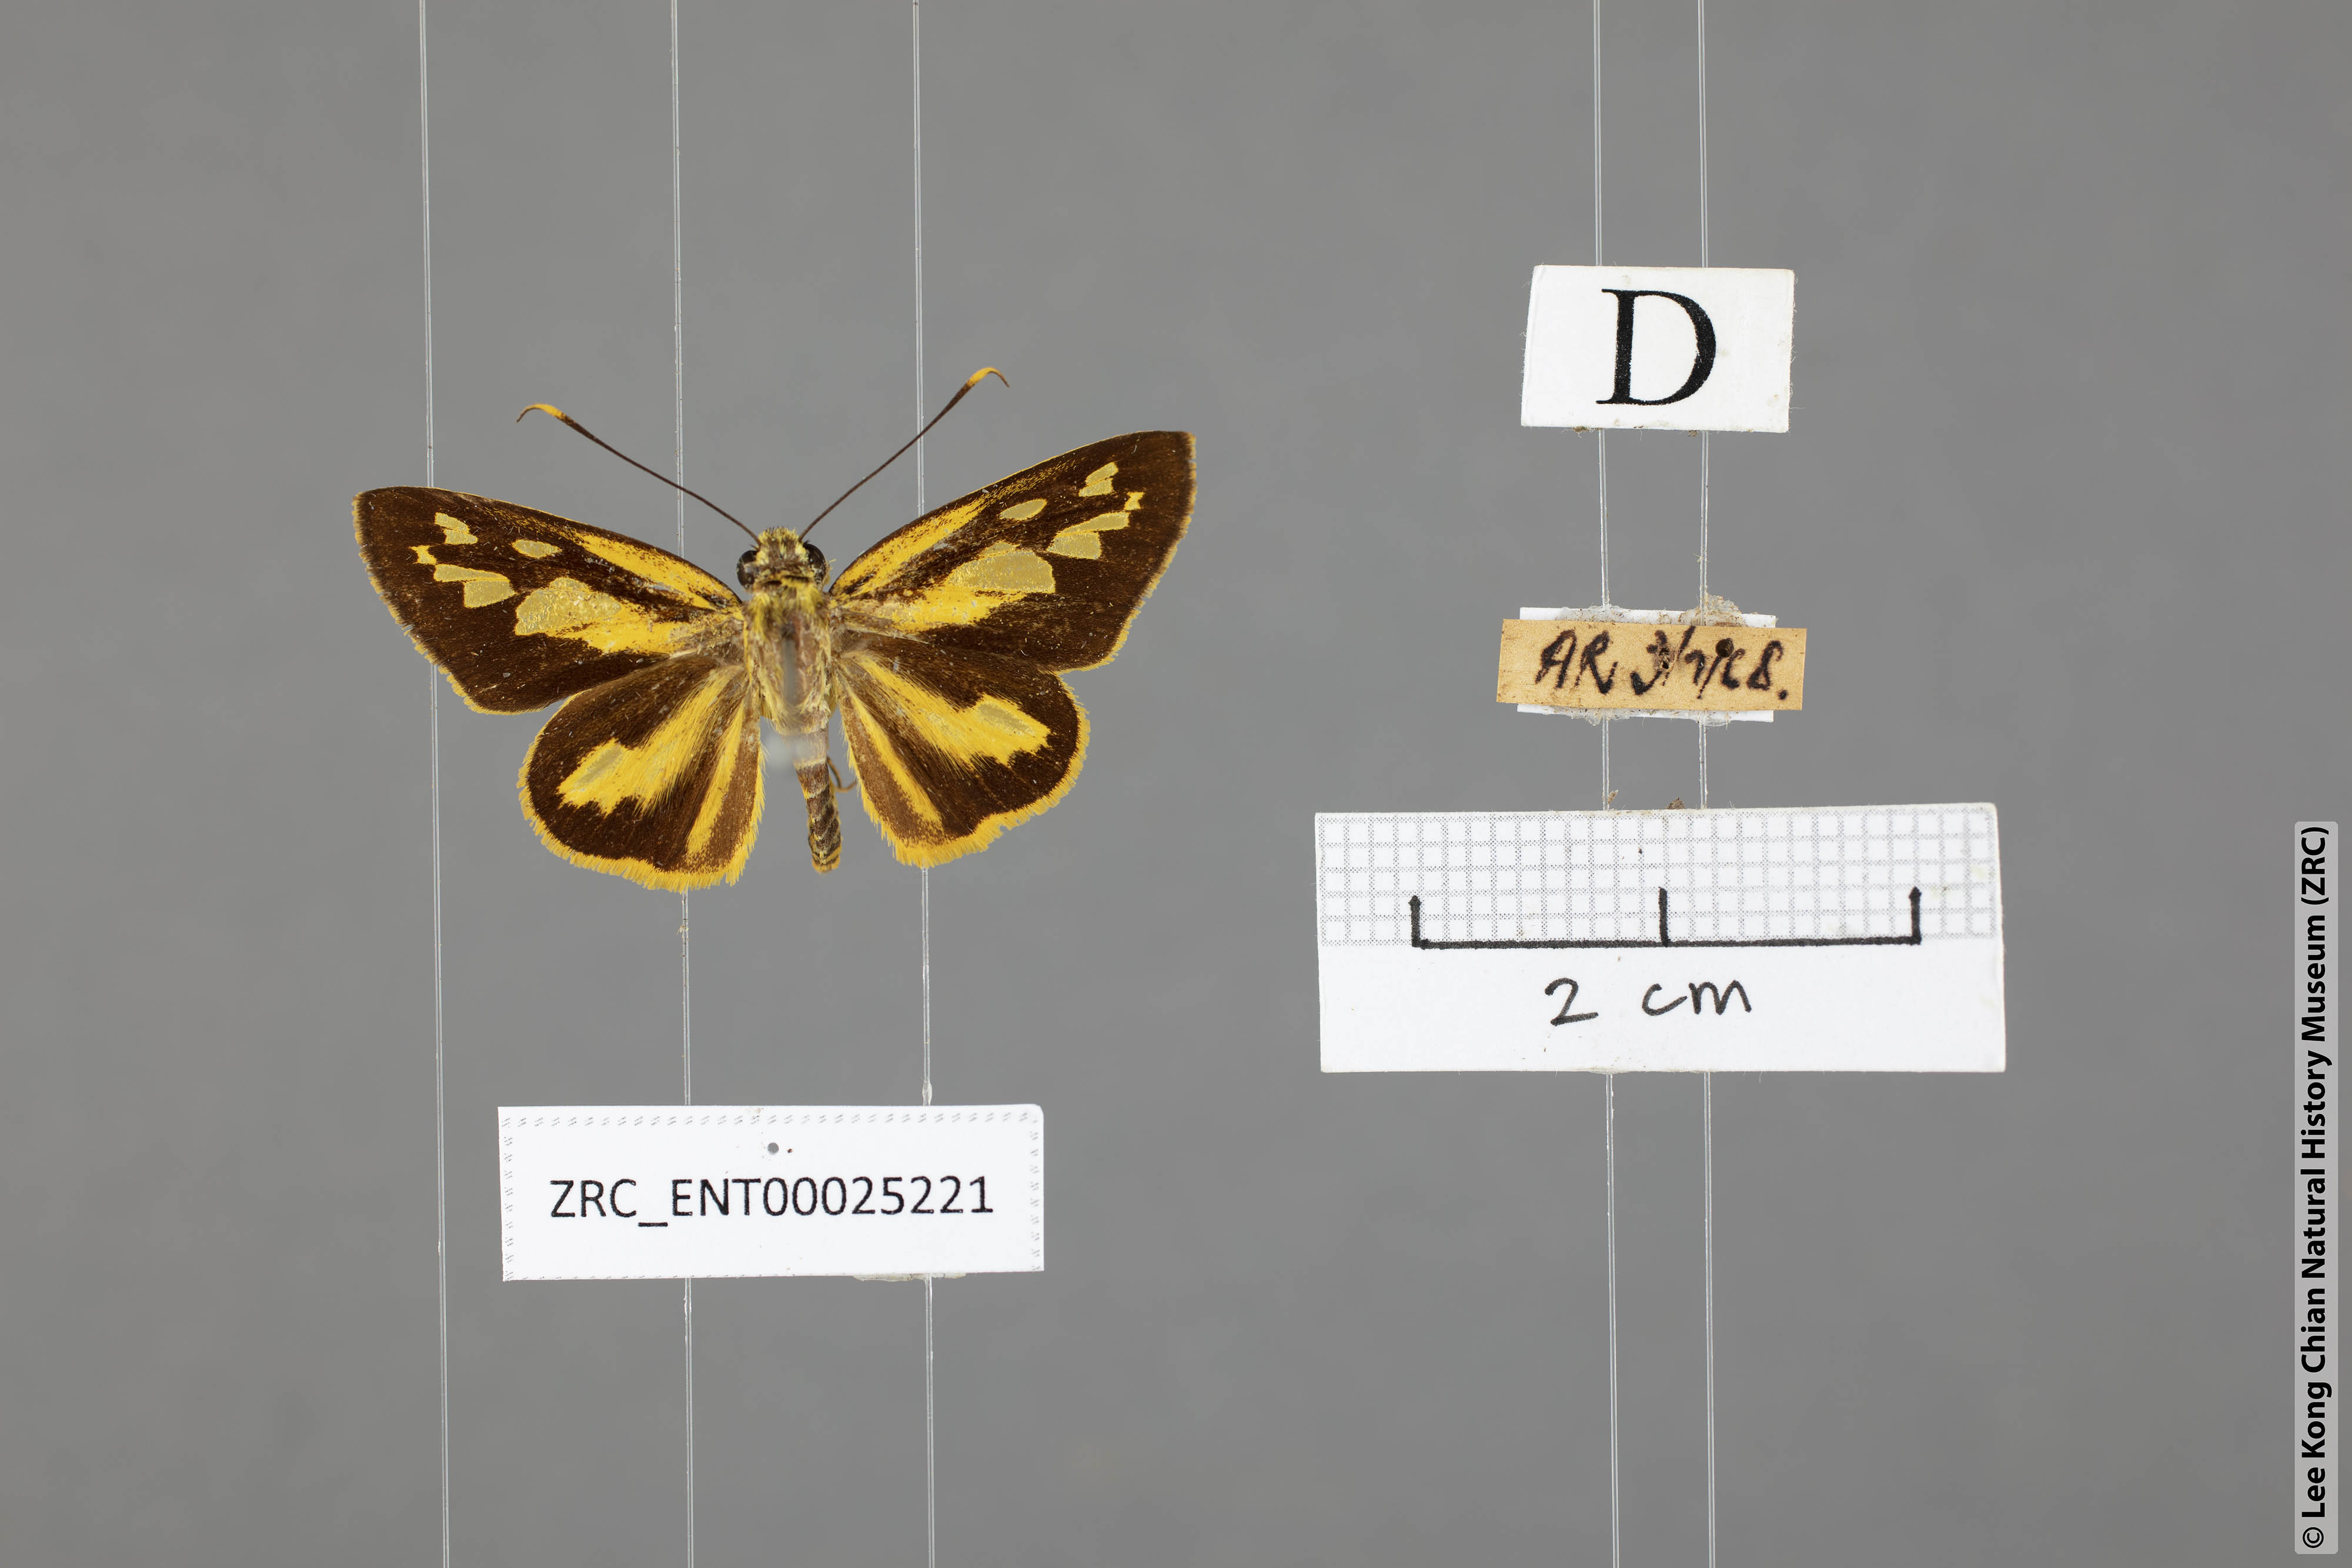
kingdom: Animalia
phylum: Arthropoda
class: Insecta
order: Lepidoptera
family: Hesperiidae
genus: Pyroneura
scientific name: Pyroneura flavia
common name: Lesser lancer
